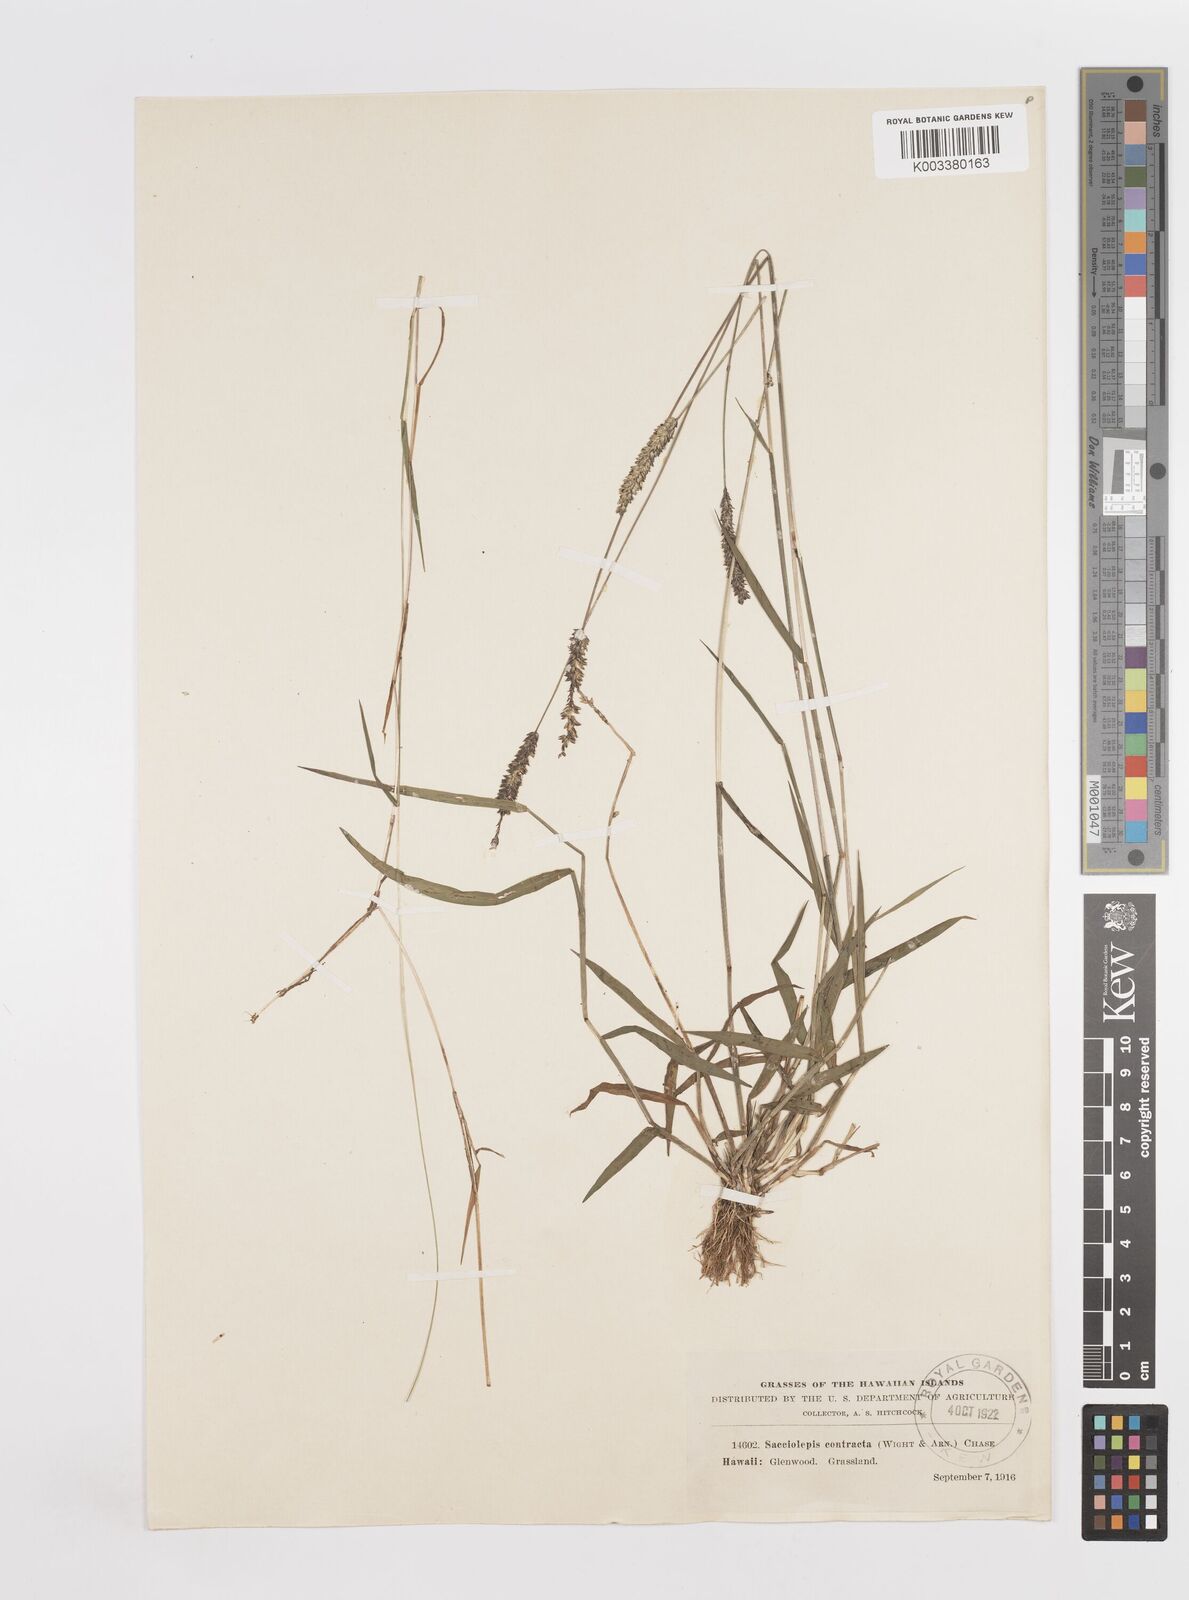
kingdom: Plantae
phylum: Tracheophyta
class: Liliopsida
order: Poales
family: Poaceae
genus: Sacciolepis
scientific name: Sacciolepis indica
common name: Glenwoodgrass
